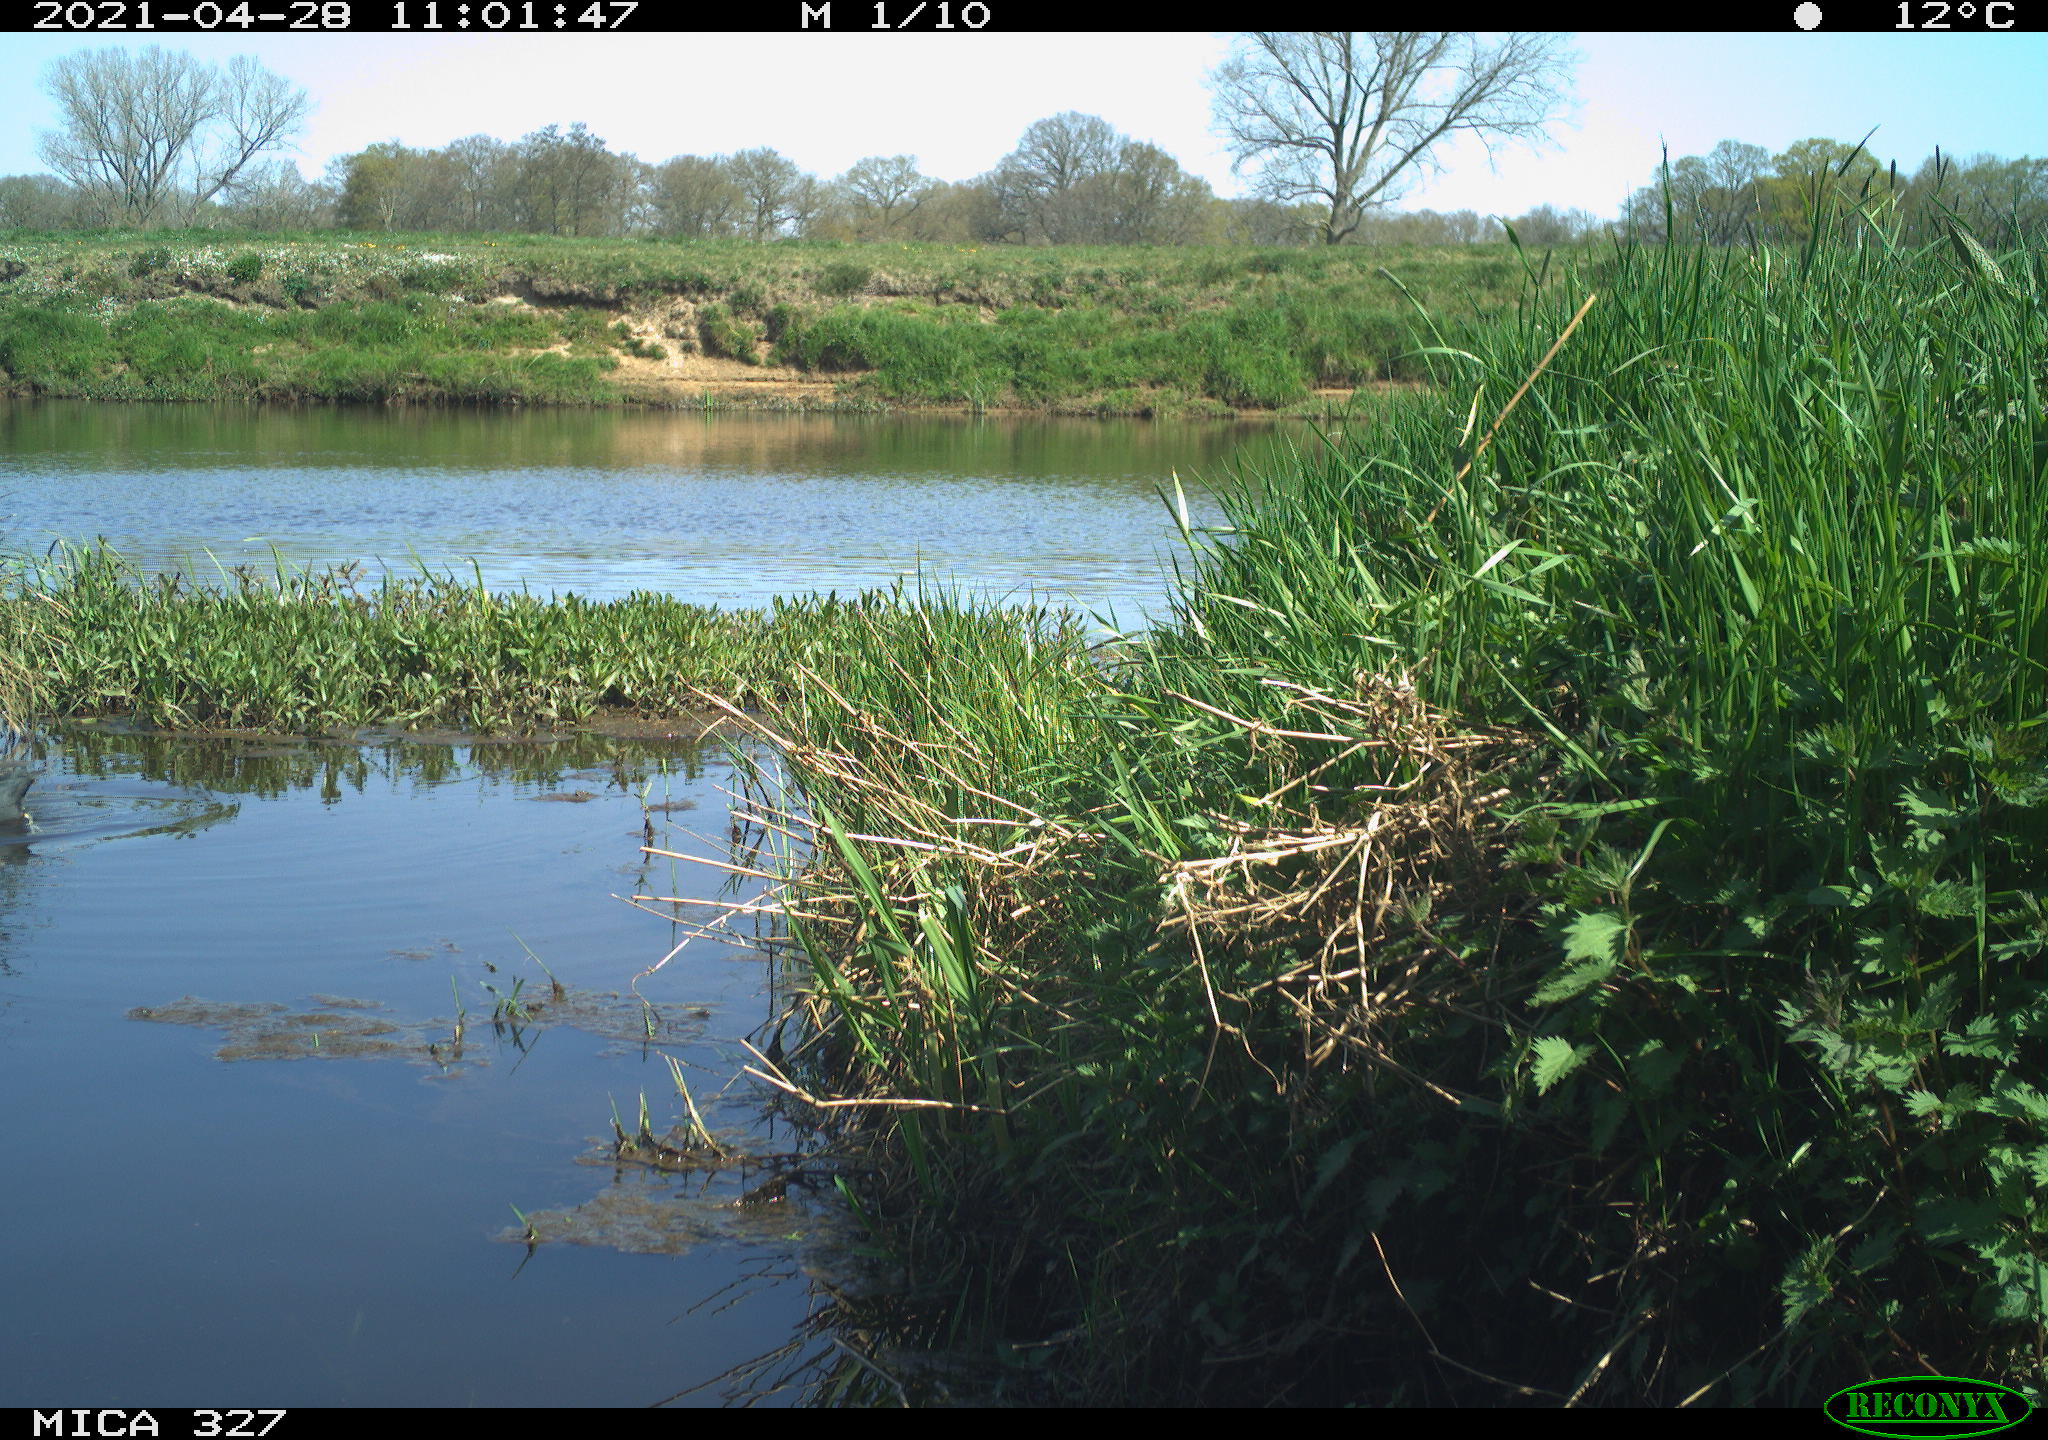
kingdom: Animalia
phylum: Chordata
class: Aves
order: Gruiformes
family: Rallidae
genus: Fulica
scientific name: Fulica atra
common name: Eurasian coot
